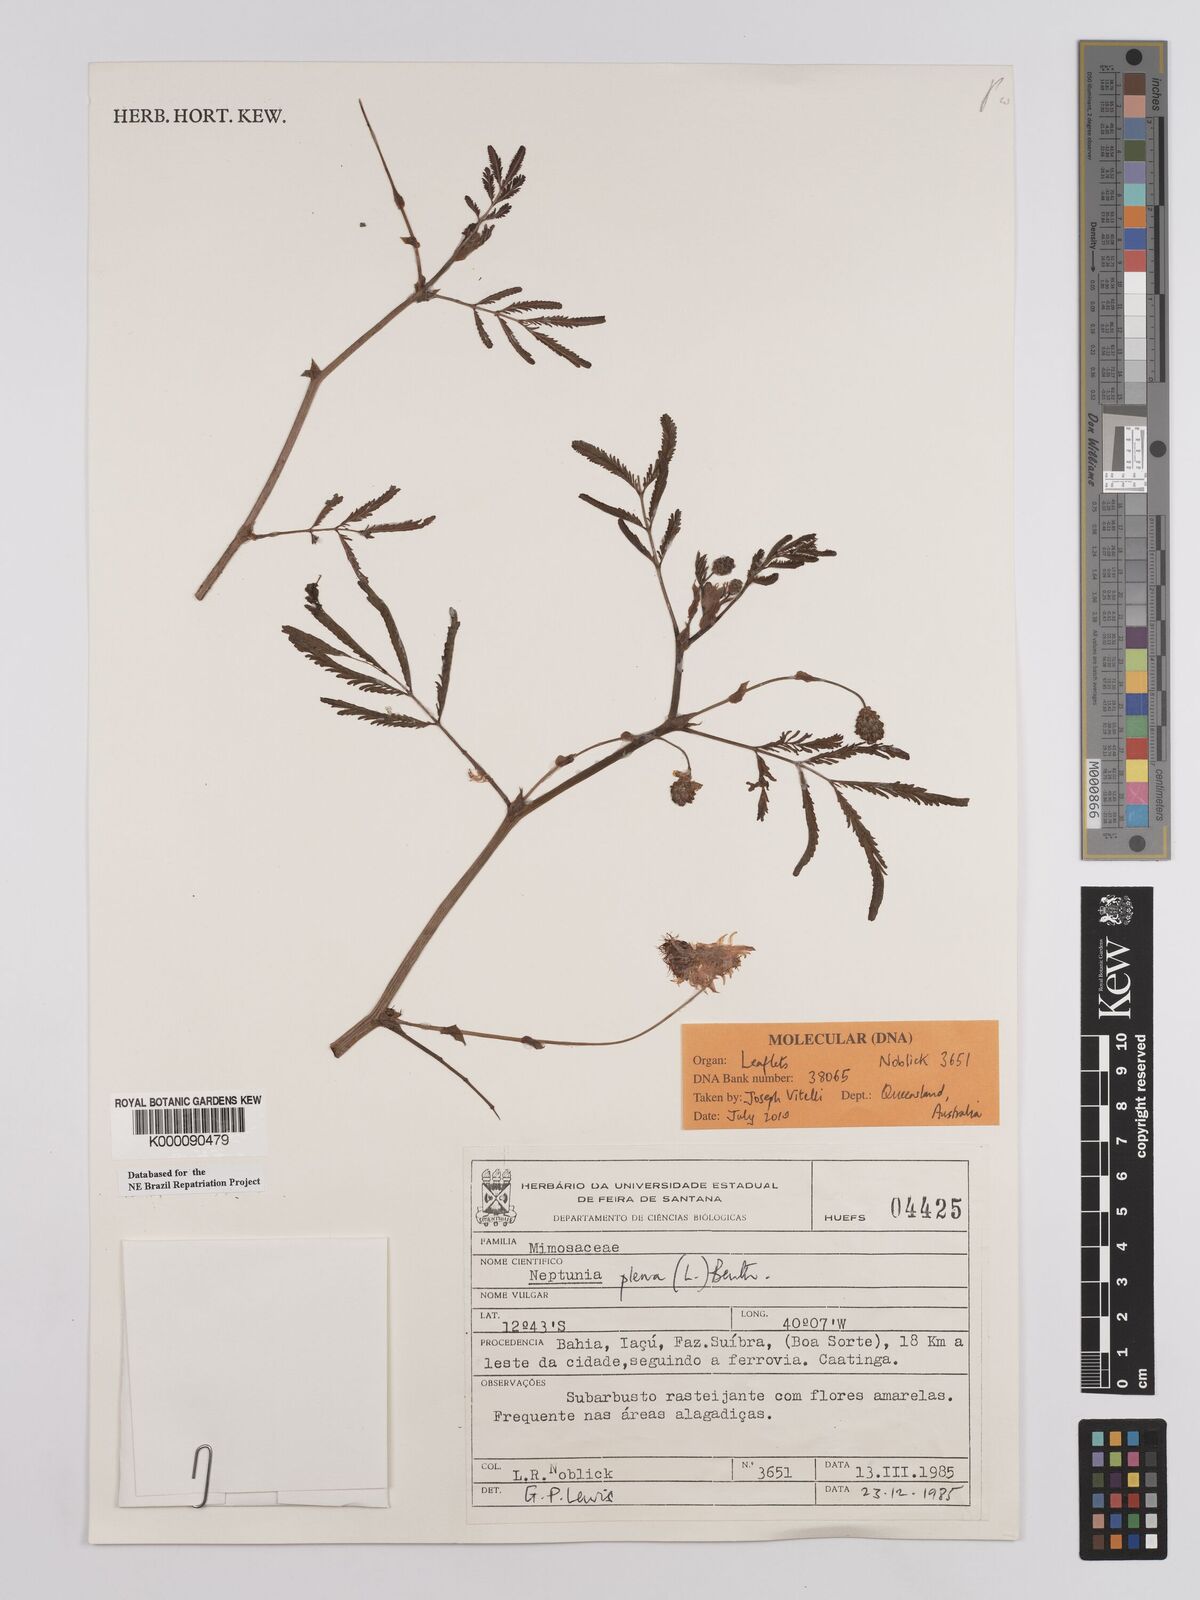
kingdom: Plantae
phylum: Tracheophyta
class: Magnoliopsida
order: Fabales
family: Fabaceae
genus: Neptunia
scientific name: Neptunia plena
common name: Dead and awake
